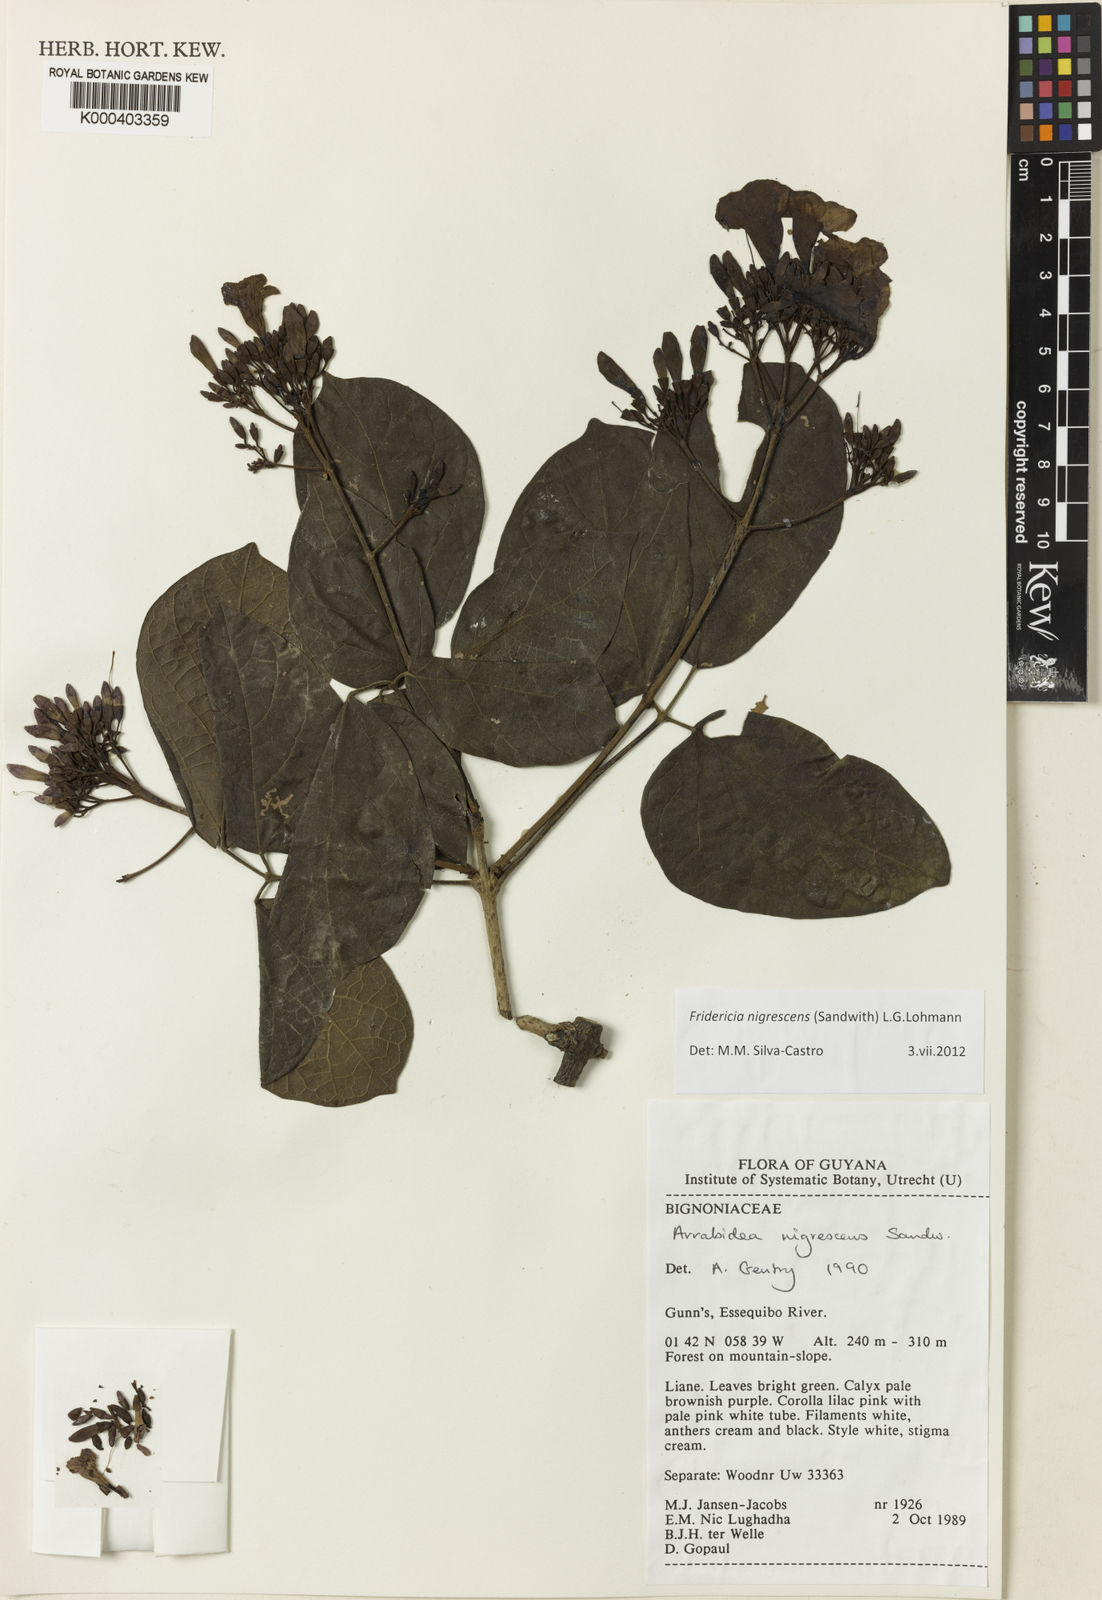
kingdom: Plantae
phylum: Tracheophyta
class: Magnoliopsida
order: Lamiales
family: Bignoniaceae
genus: Fridericia
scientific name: Fridericia nigrescens
